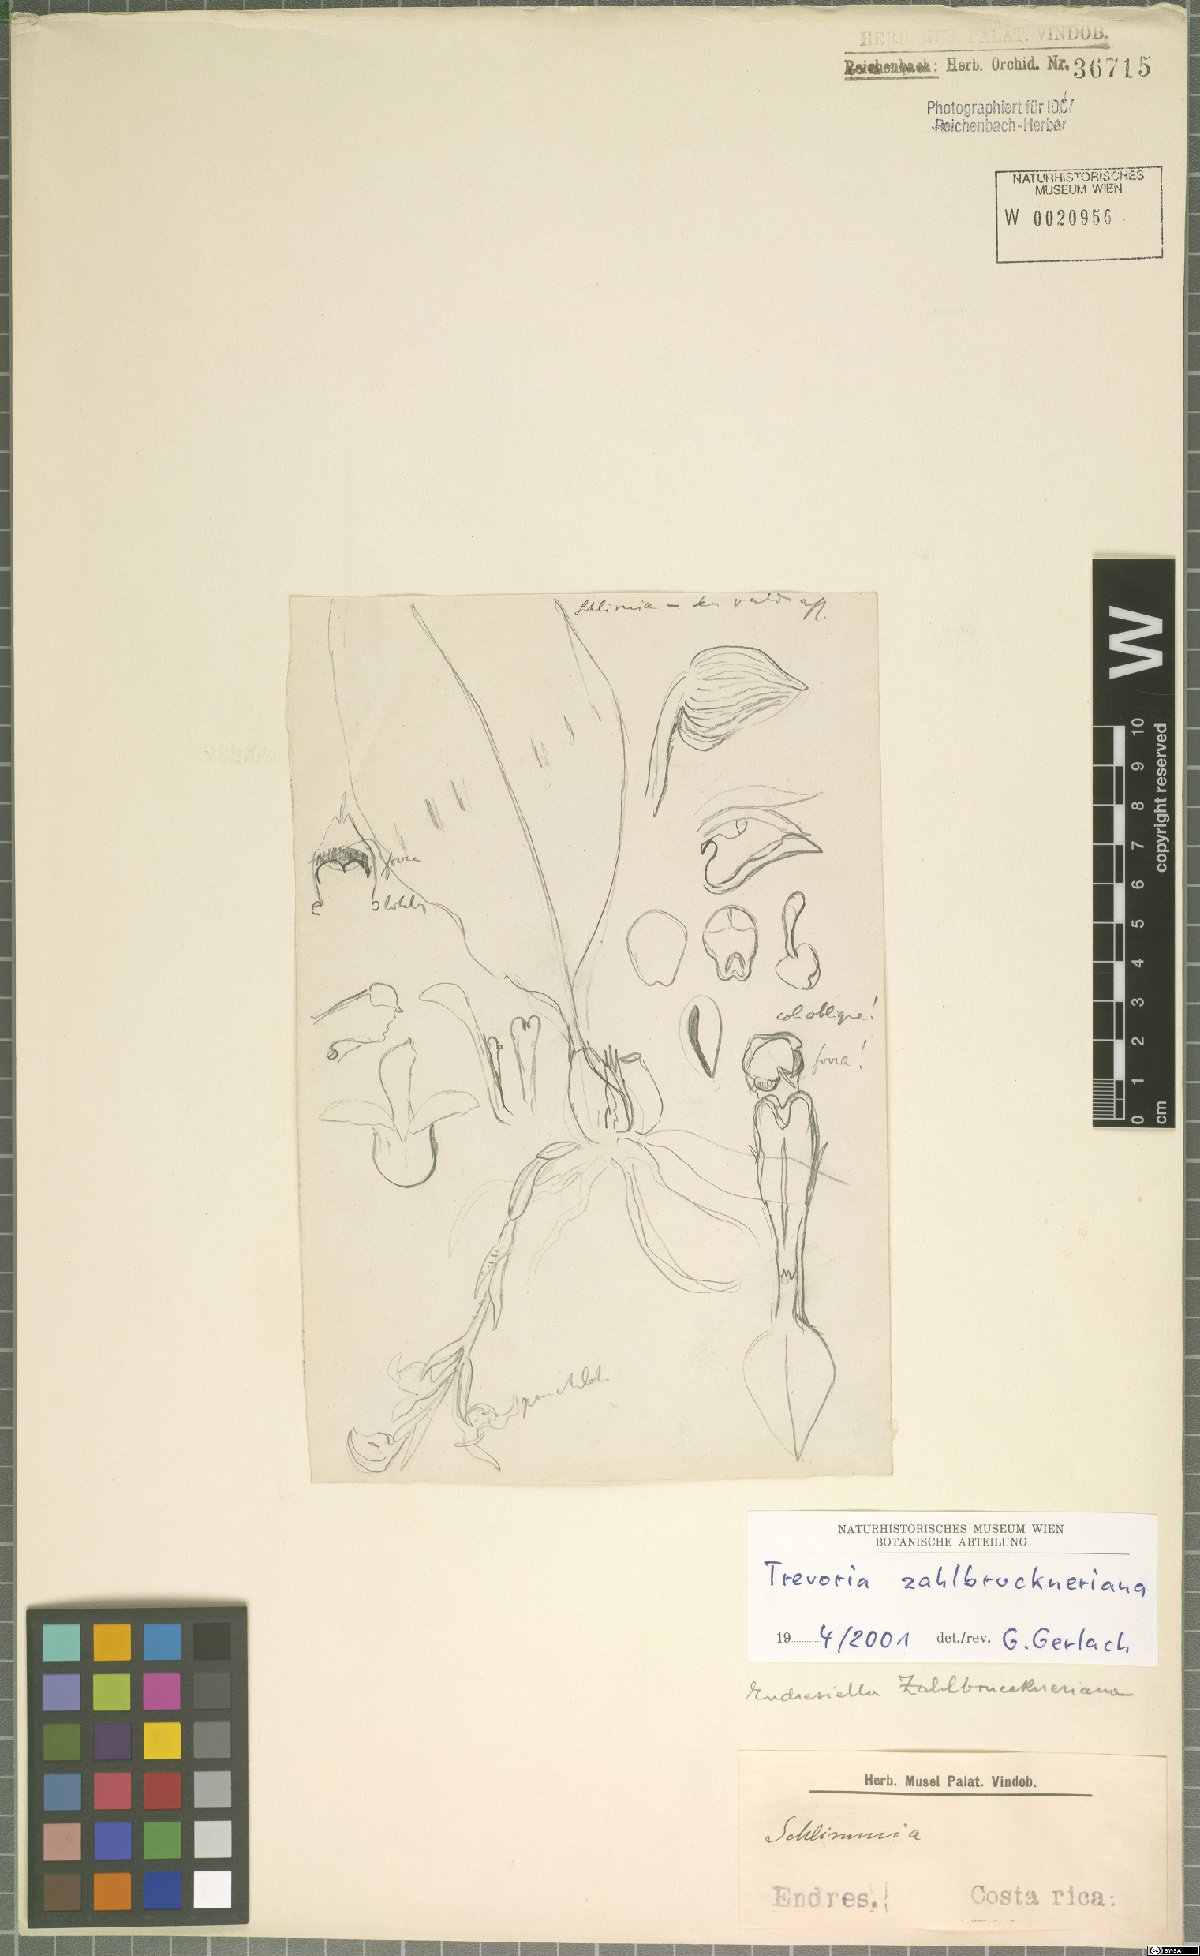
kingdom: Plantae
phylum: Tracheophyta
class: Liliopsida
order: Asparagales
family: Orchidaceae
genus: Trevoria
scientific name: Trevoria zahlbruckneriana
